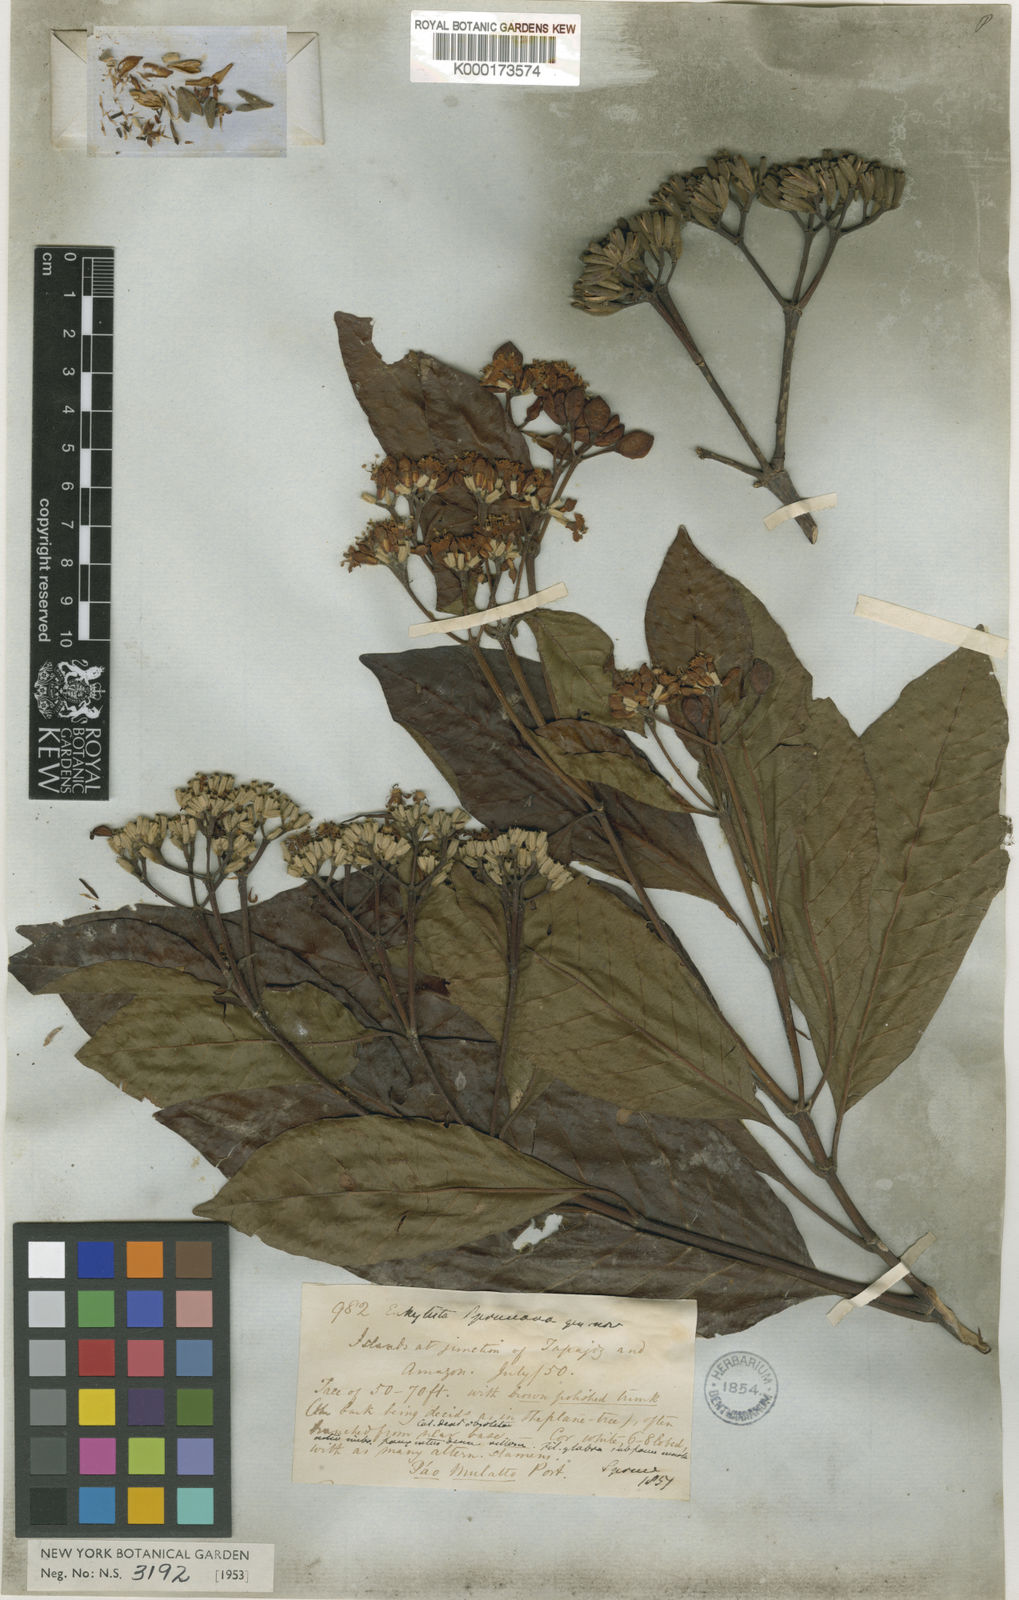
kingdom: Plantae
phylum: Tracheophyta
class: Magnoliopsida
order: Gentianales
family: Rubiaceae
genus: Calycophyllum
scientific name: Calycophyllum spruceanum
